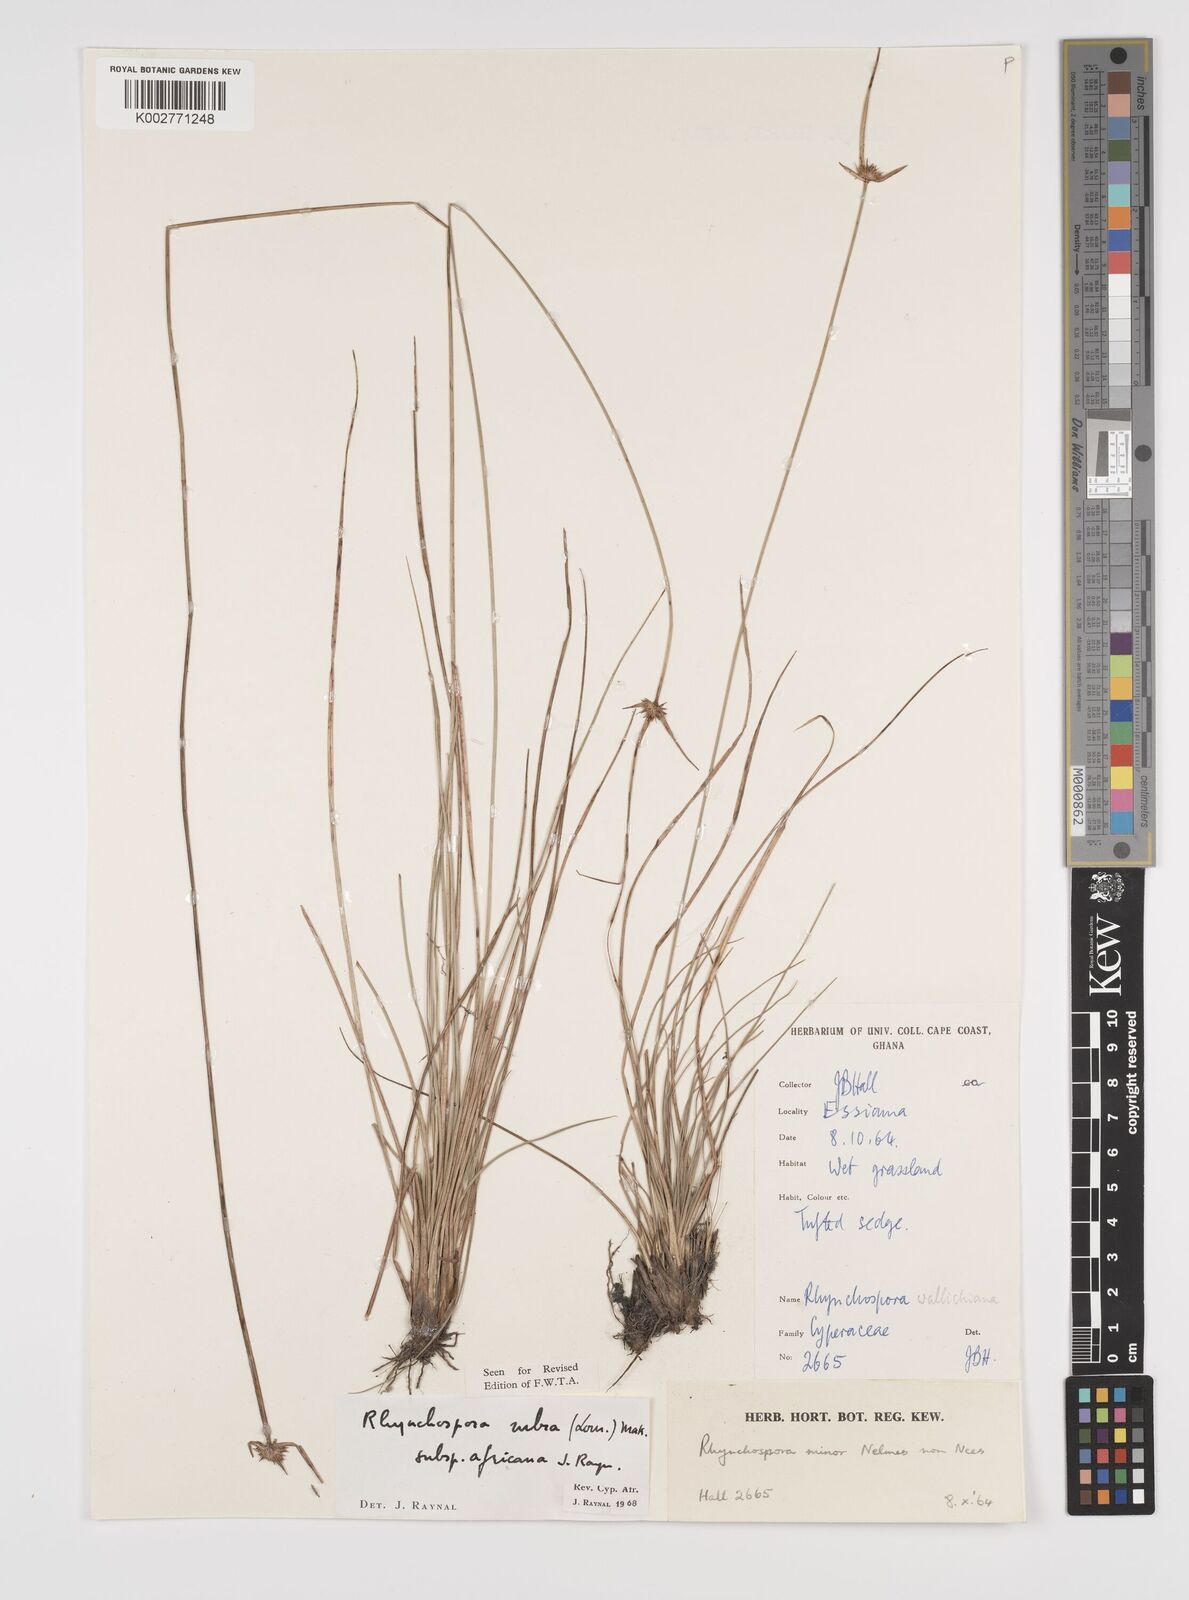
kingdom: Plantae
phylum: Tracheophyta
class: Liliopsida
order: Poales
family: Cyperaceae
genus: Rhynchospora
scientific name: Rhynchospora rubra
